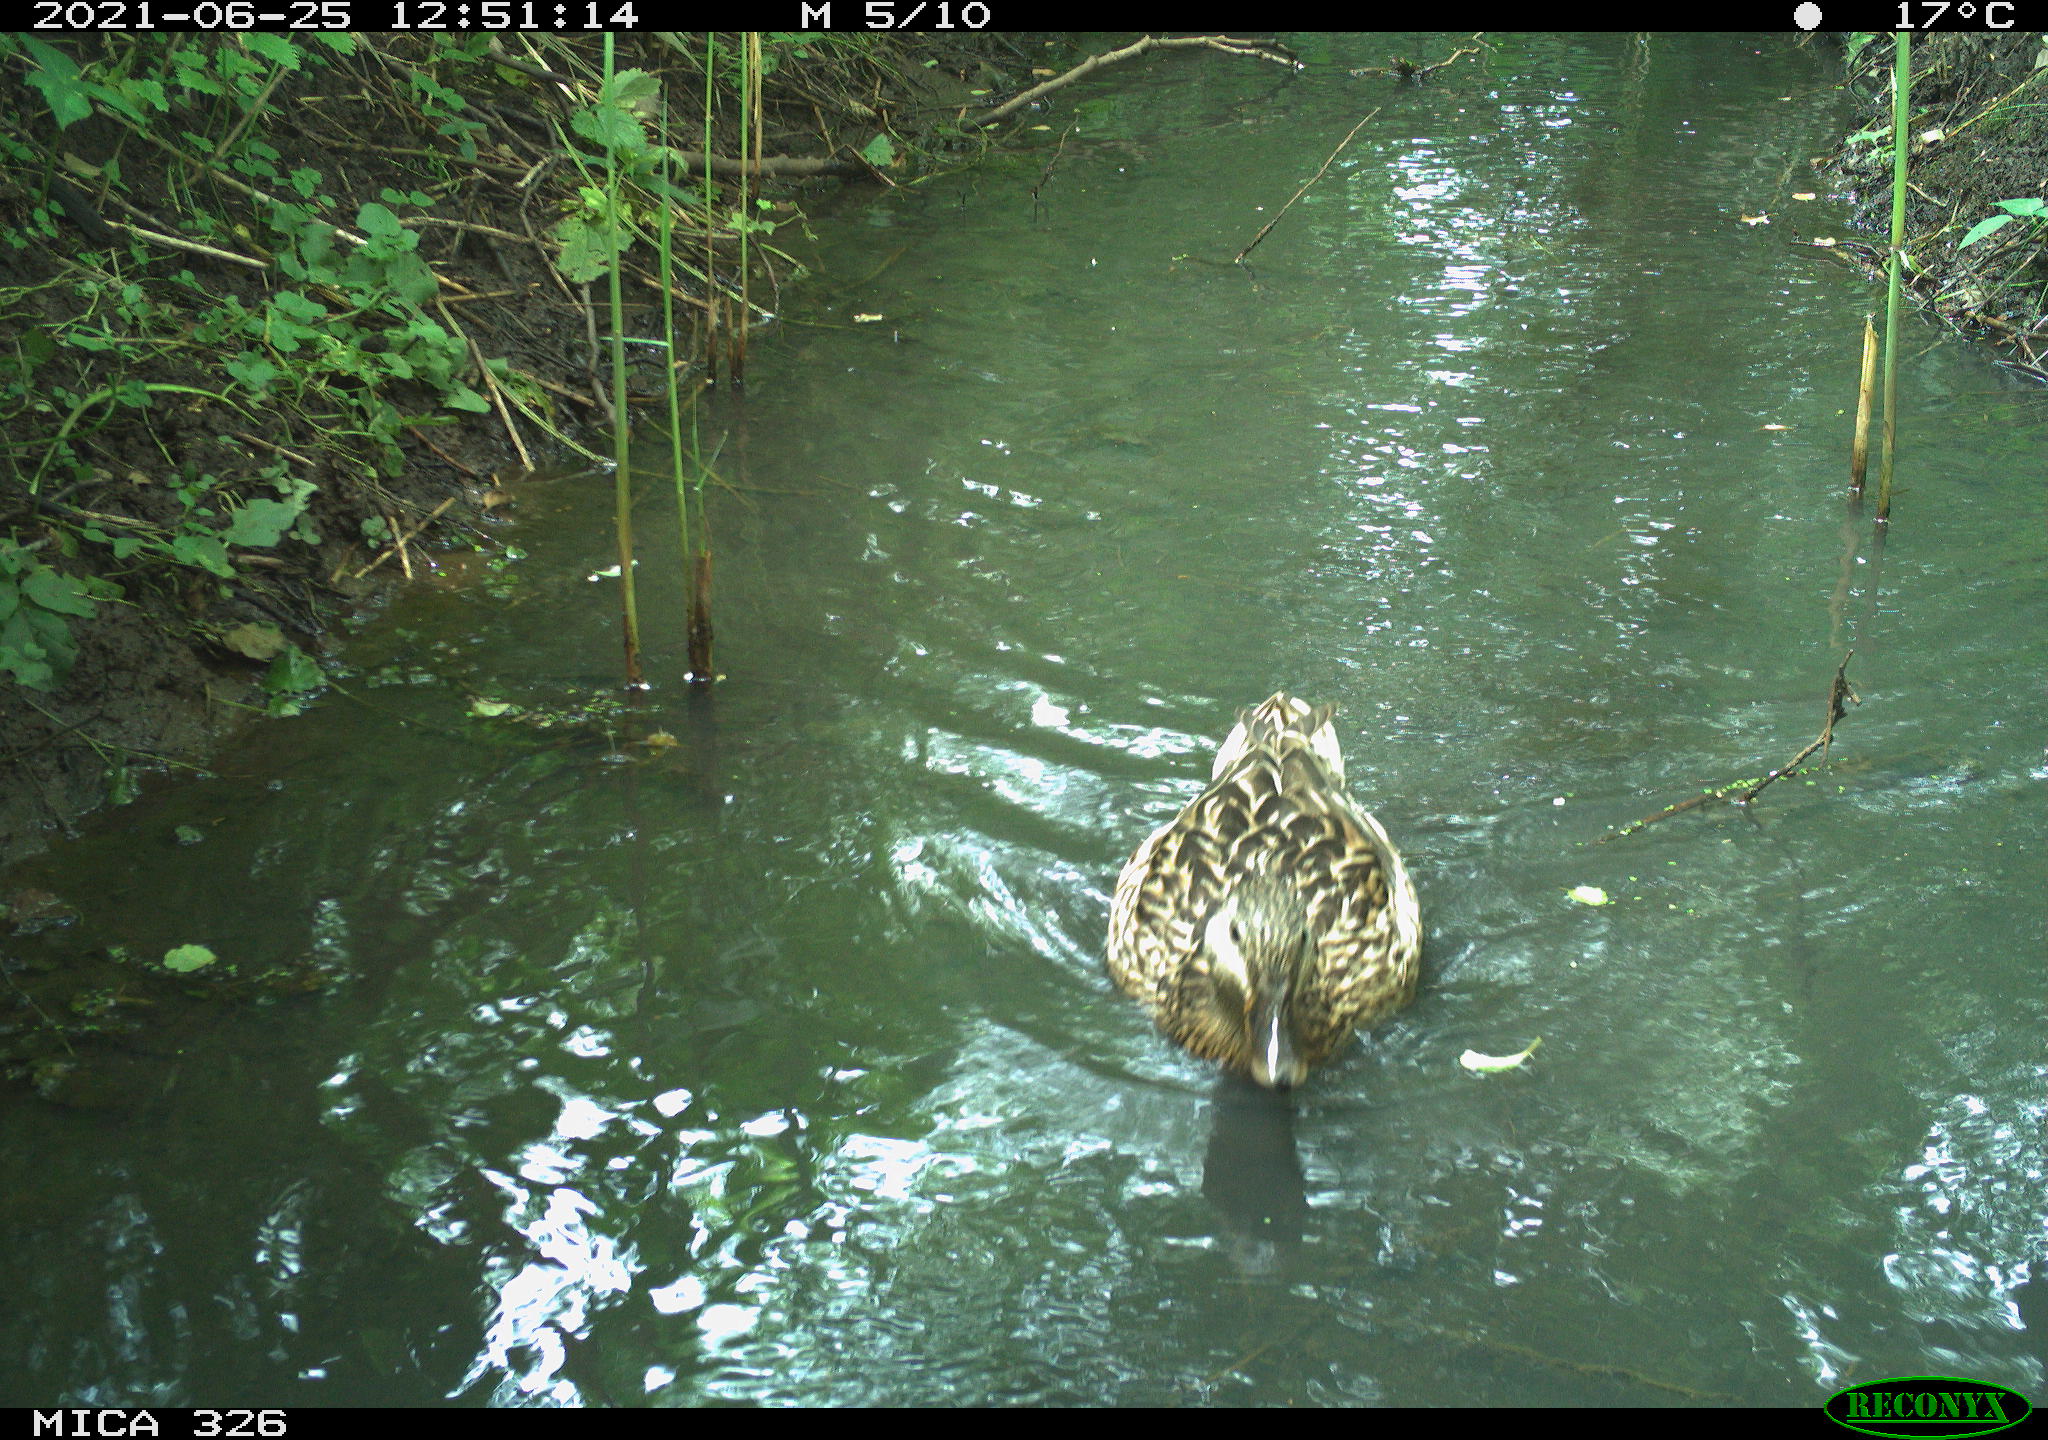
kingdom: Animalia
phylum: Chordata
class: Aves
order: Anseriformes
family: Anatidae
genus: Anas
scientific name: Anas platyrhynchos
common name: Mallard
